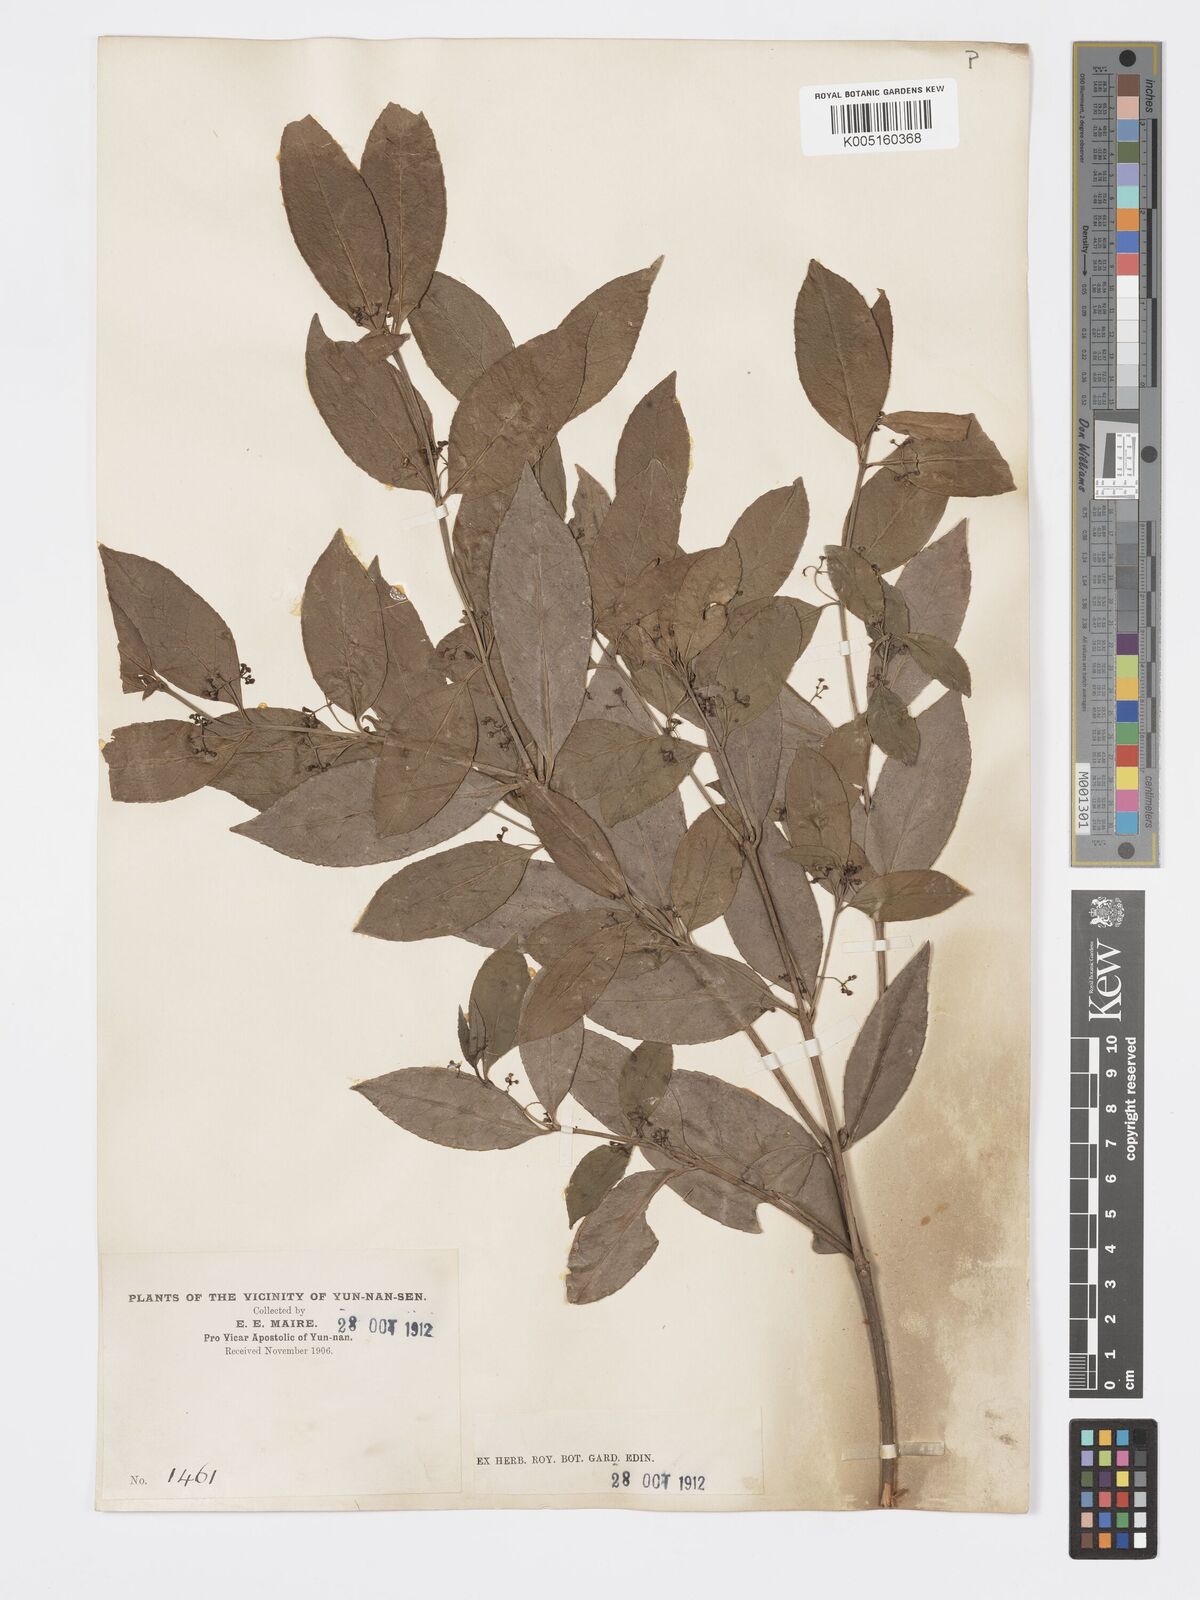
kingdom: Plantae
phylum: Tracheophyta
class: Magnoliopsida
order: Celastrales
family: Celastraceae
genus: Euonymus
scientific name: Euonymus
